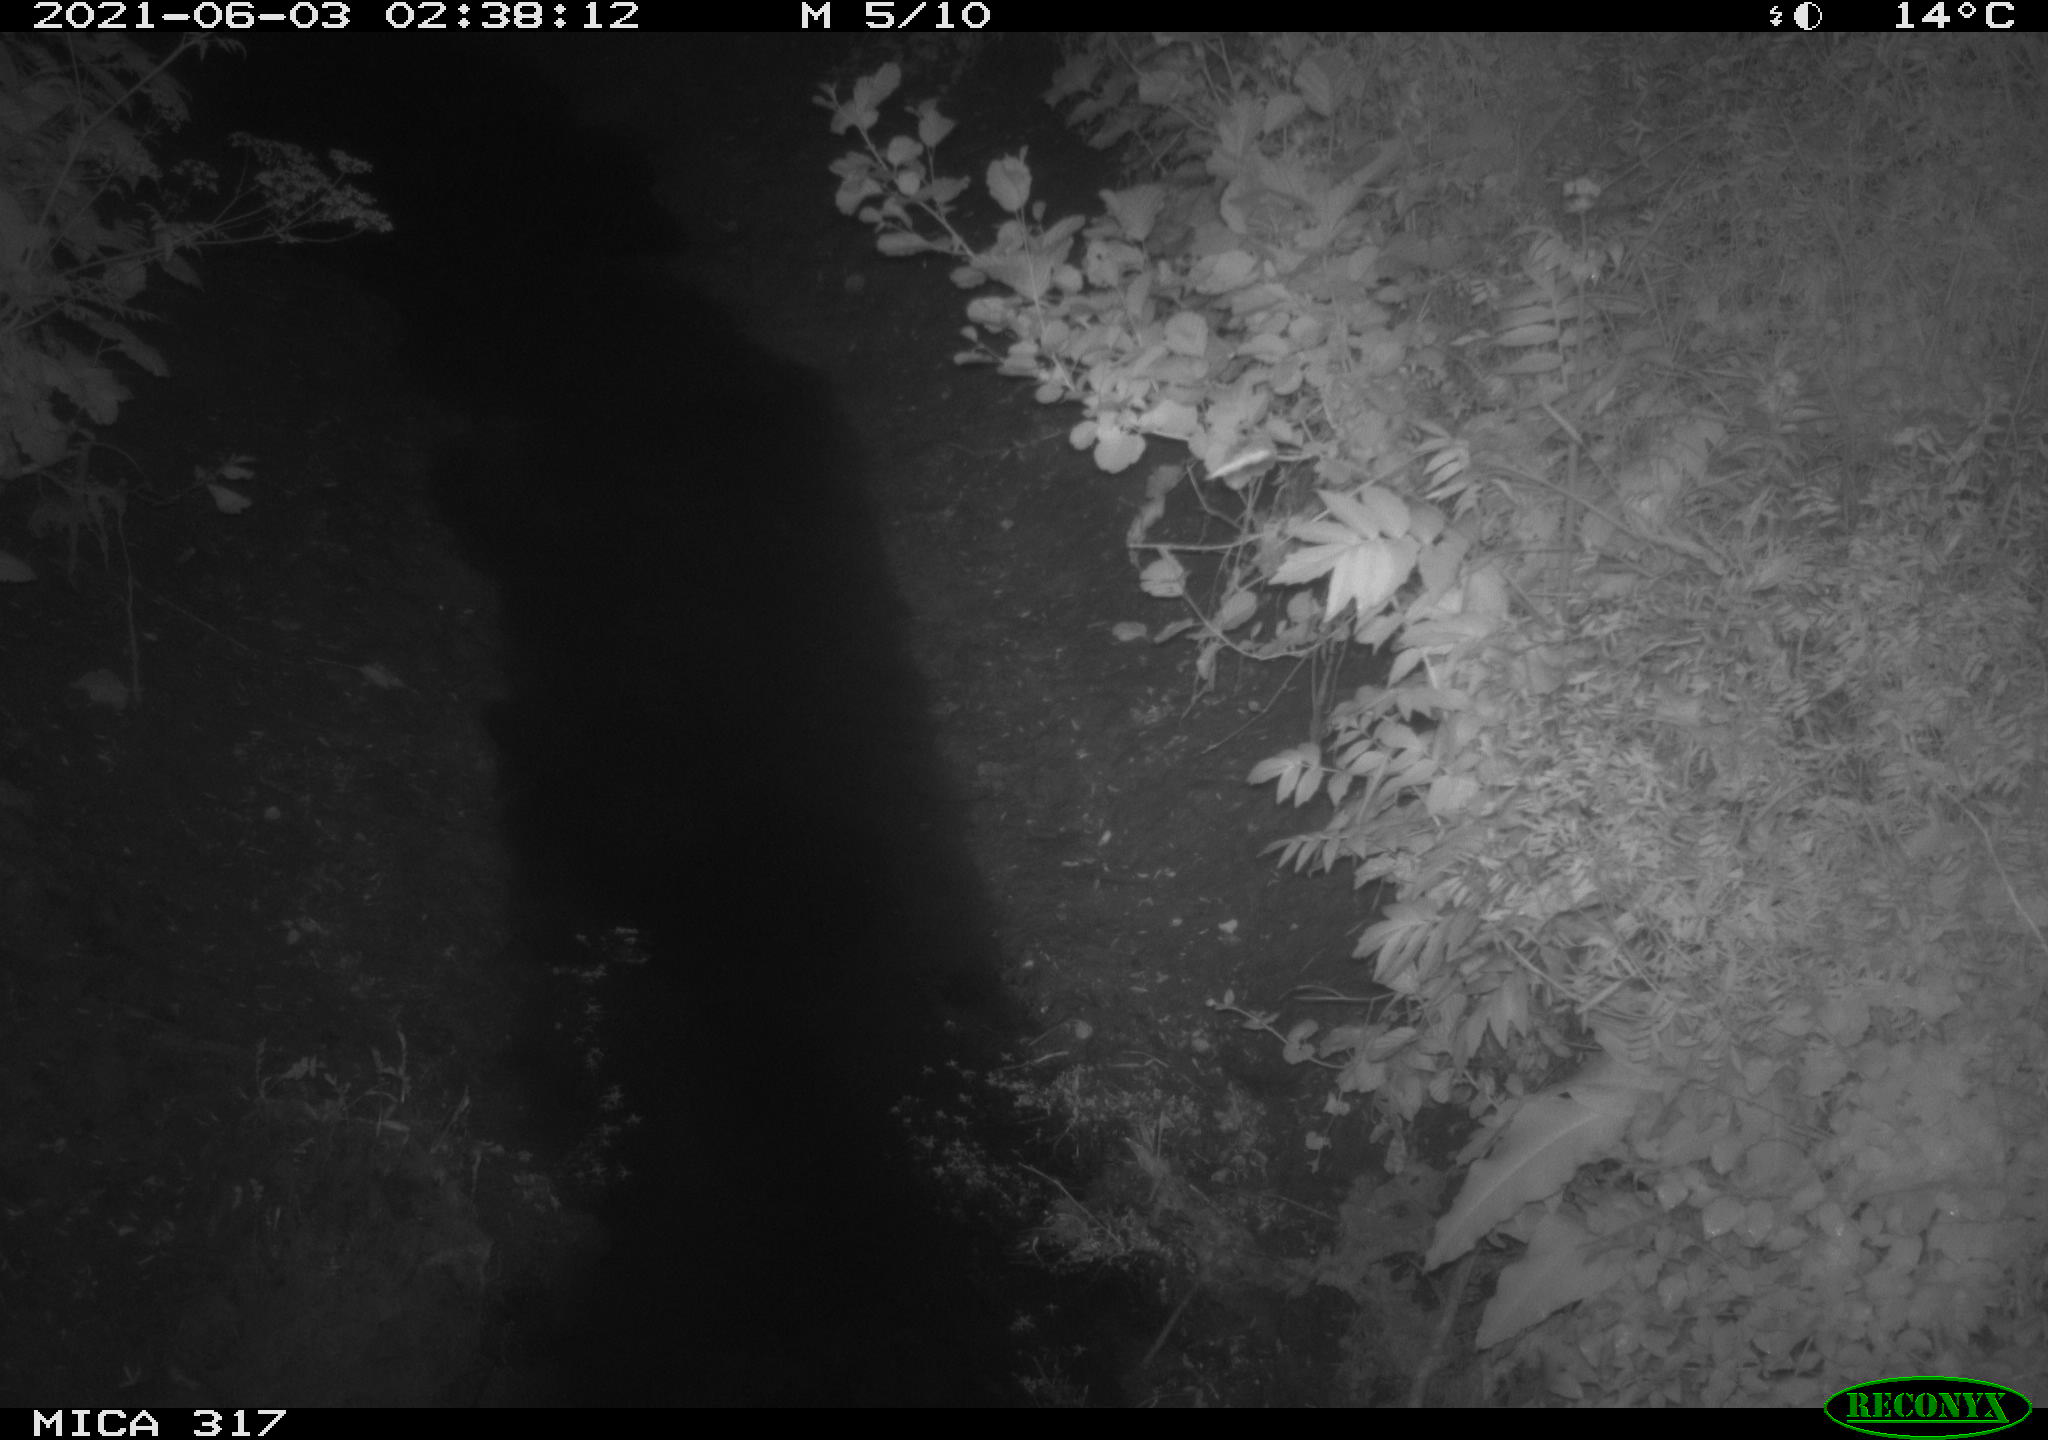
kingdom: Animalia
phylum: Chordata
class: Mammalia
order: Carnivora
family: Mustelidae
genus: Martes
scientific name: Martes foina
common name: Beech marten
